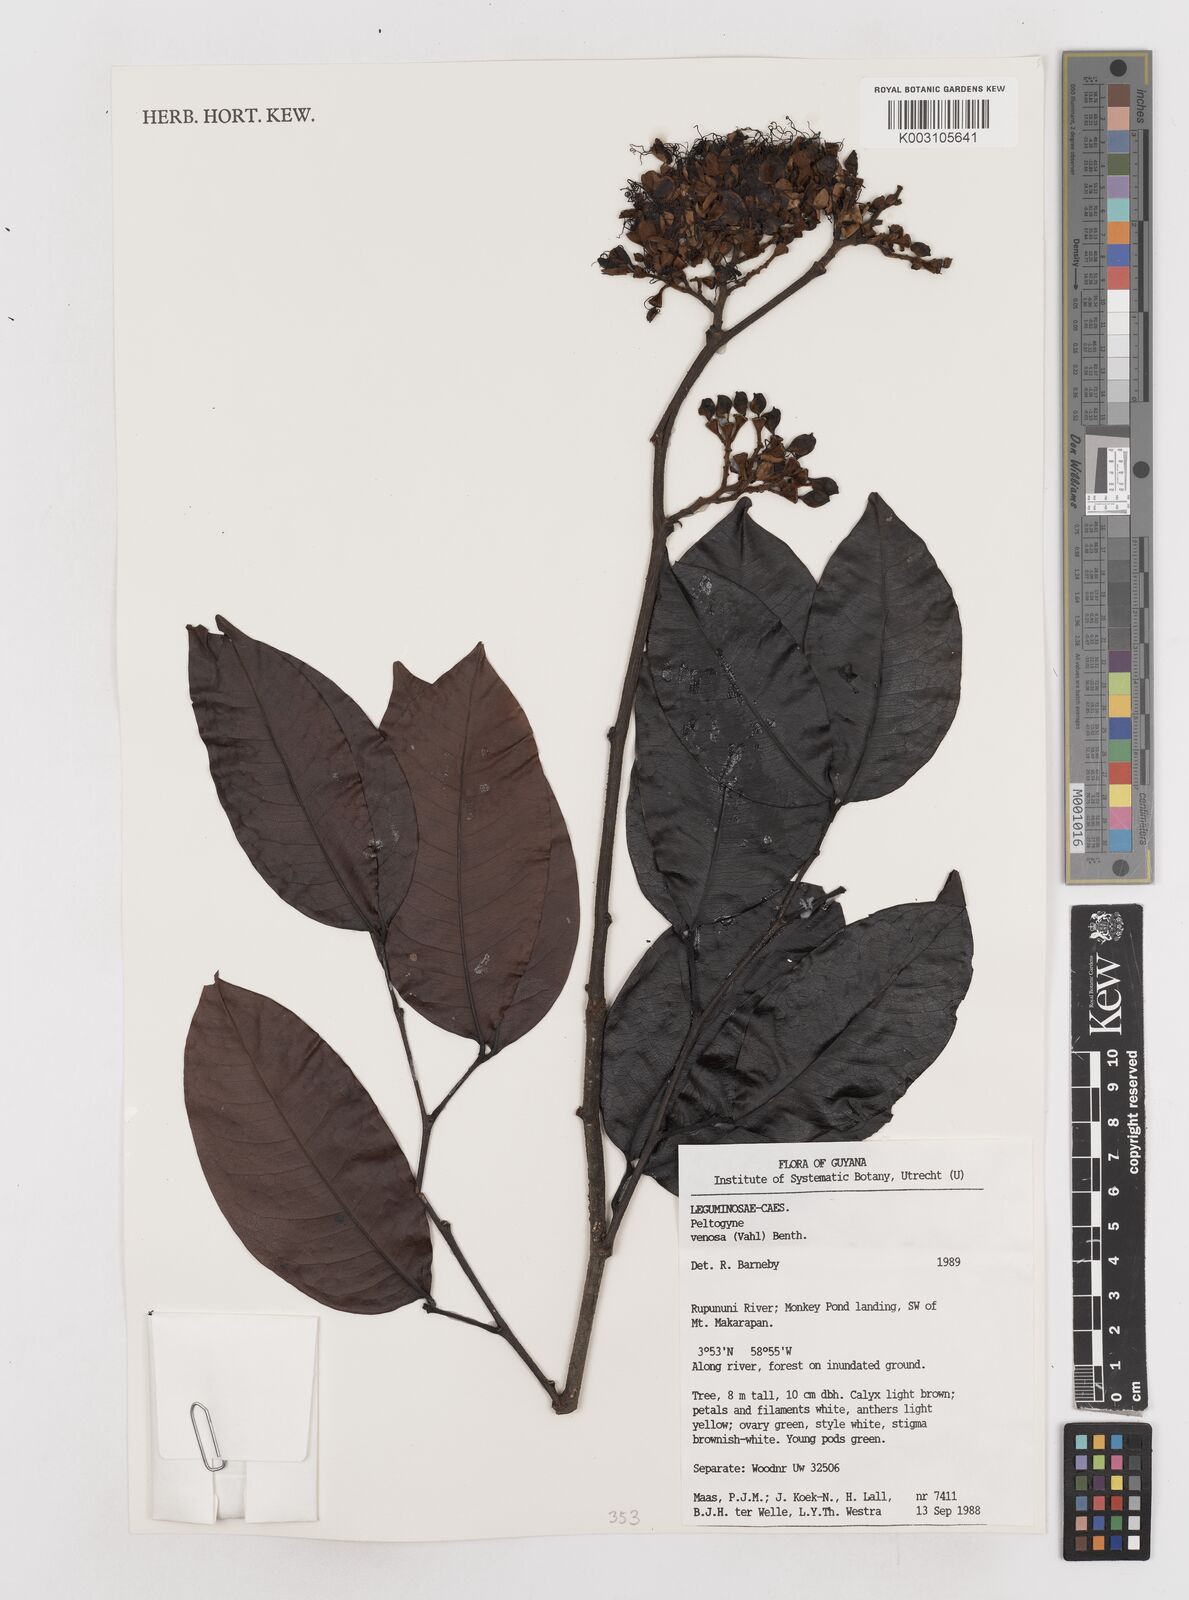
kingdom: Plantae
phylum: Tracheophyta
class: Magnoliopsida
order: Fabales
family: Fabaceae
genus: Peltogyne
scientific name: Peltogyne venosa
